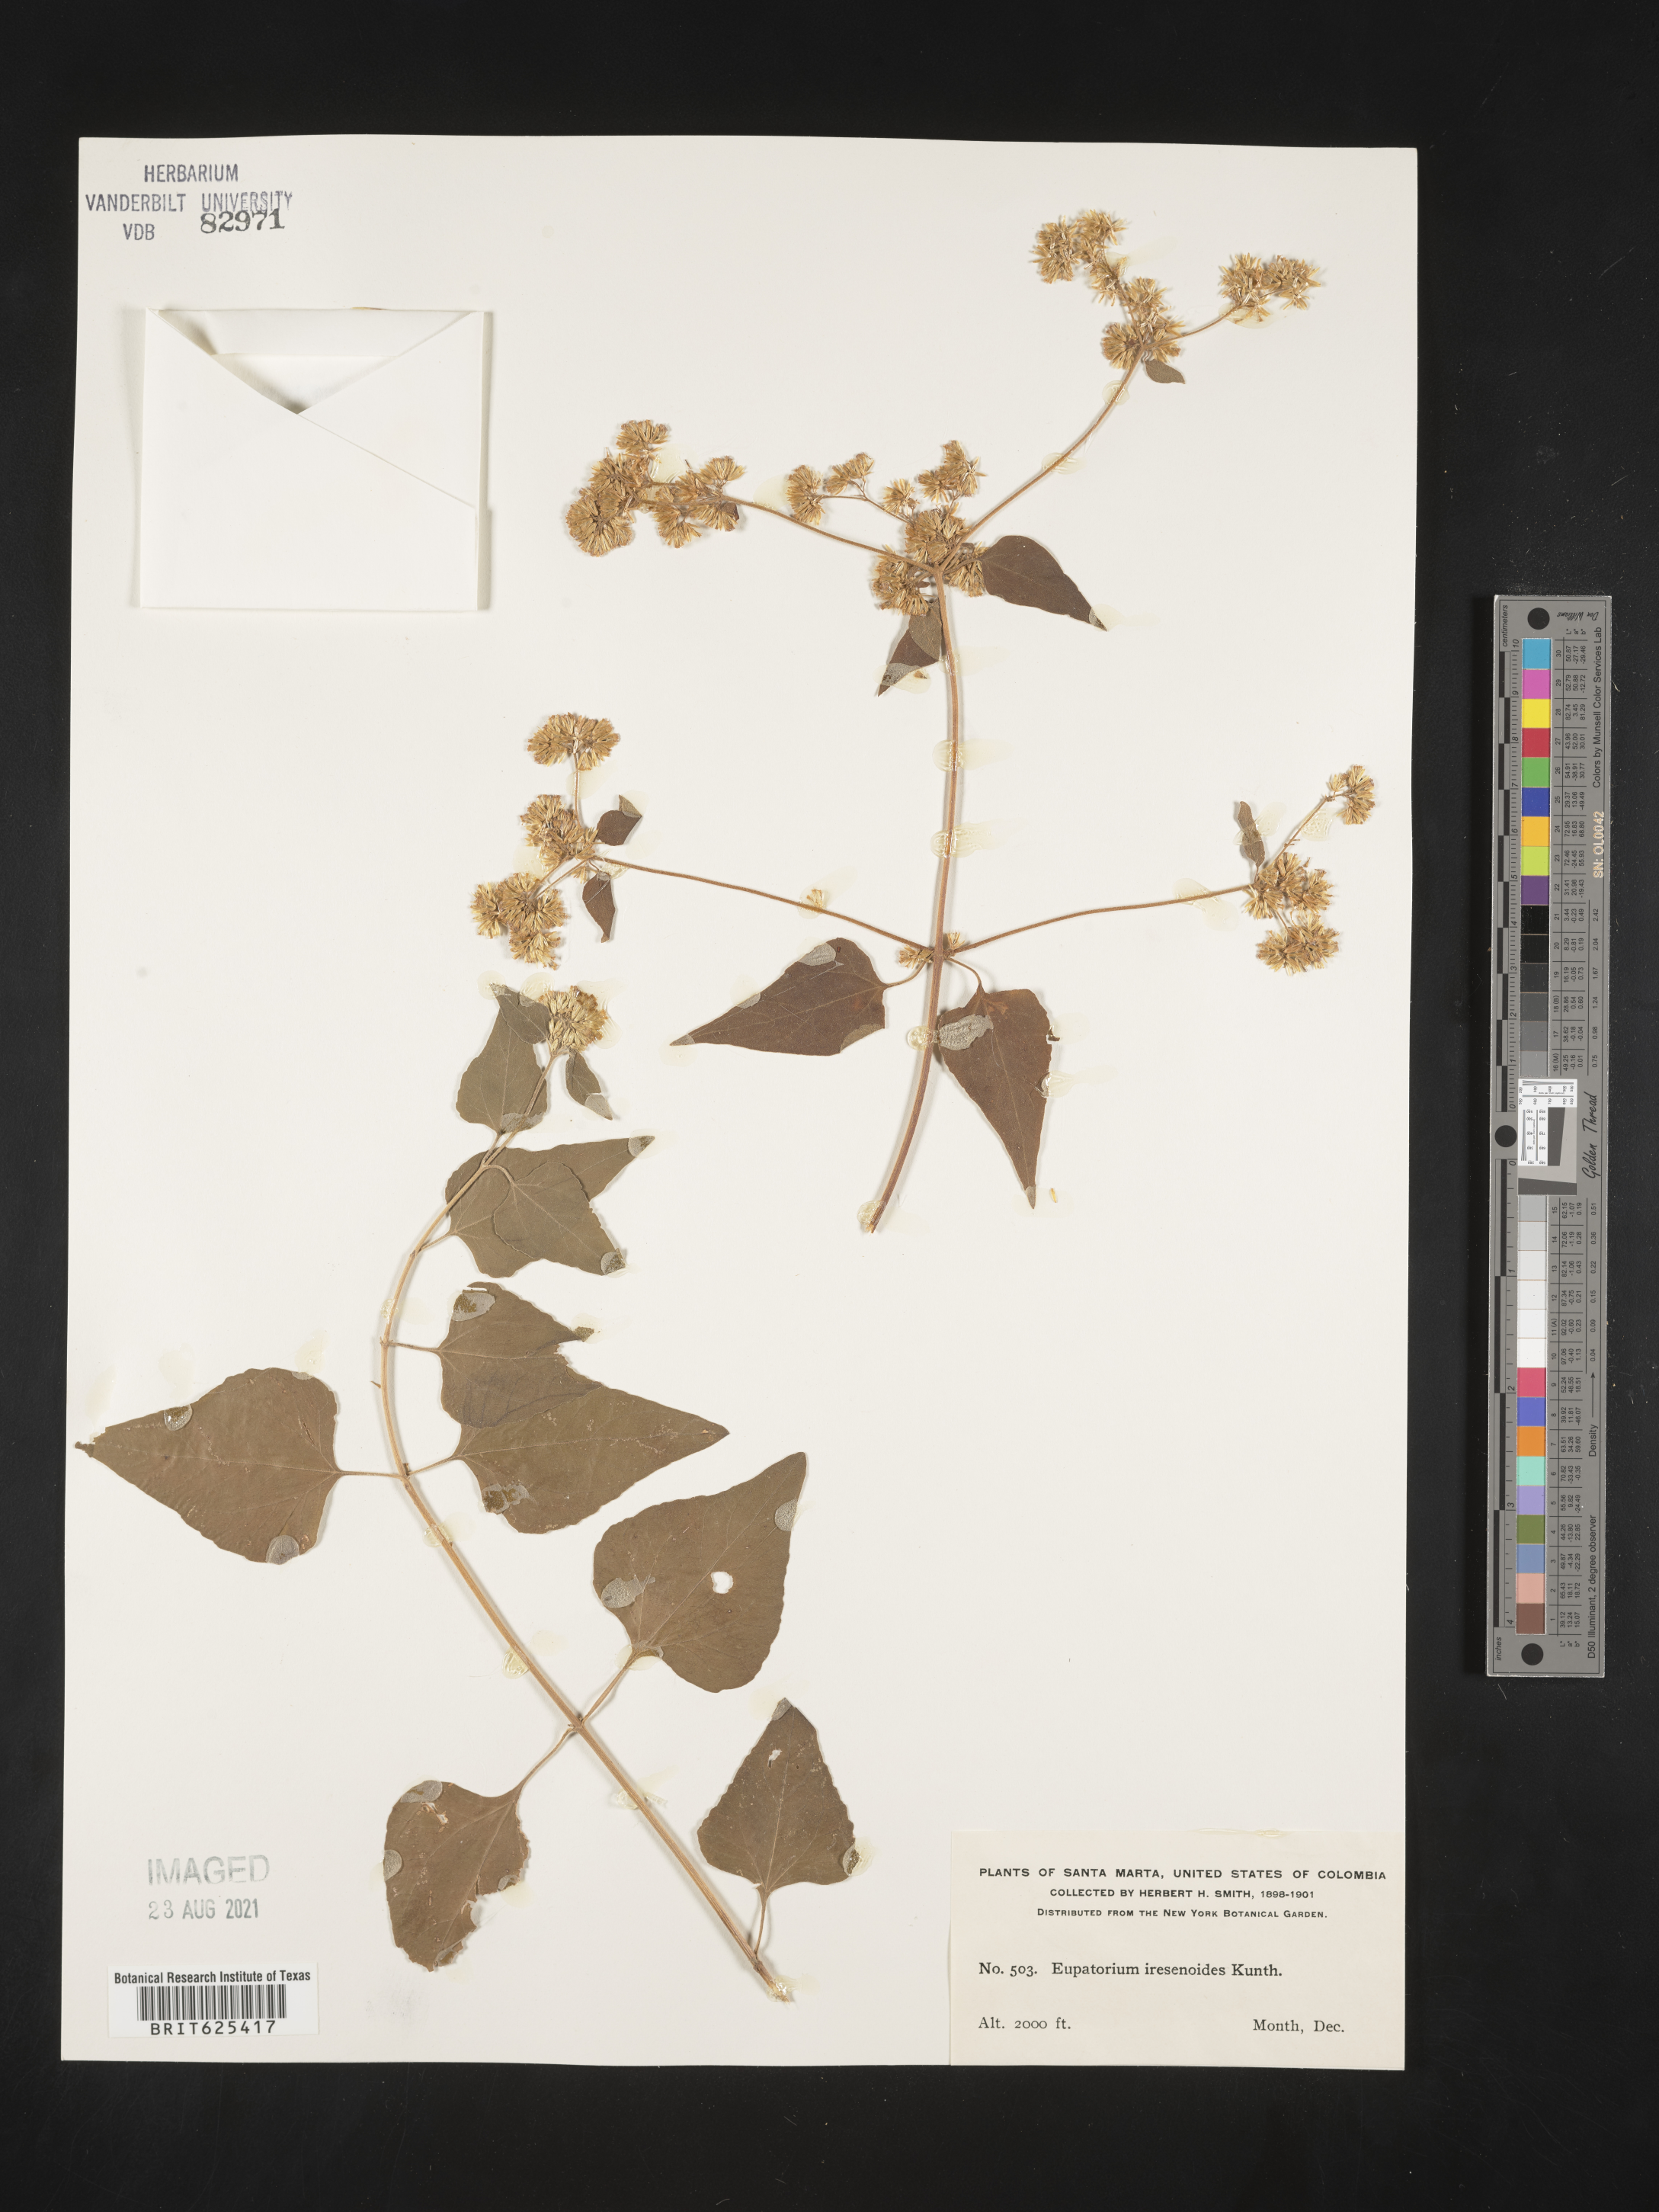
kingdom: Plantae
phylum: Tracheophyta
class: Magnoliopsida
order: Asterales
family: Asteraceae
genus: Condylidium
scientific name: Condylidium iresinoides
